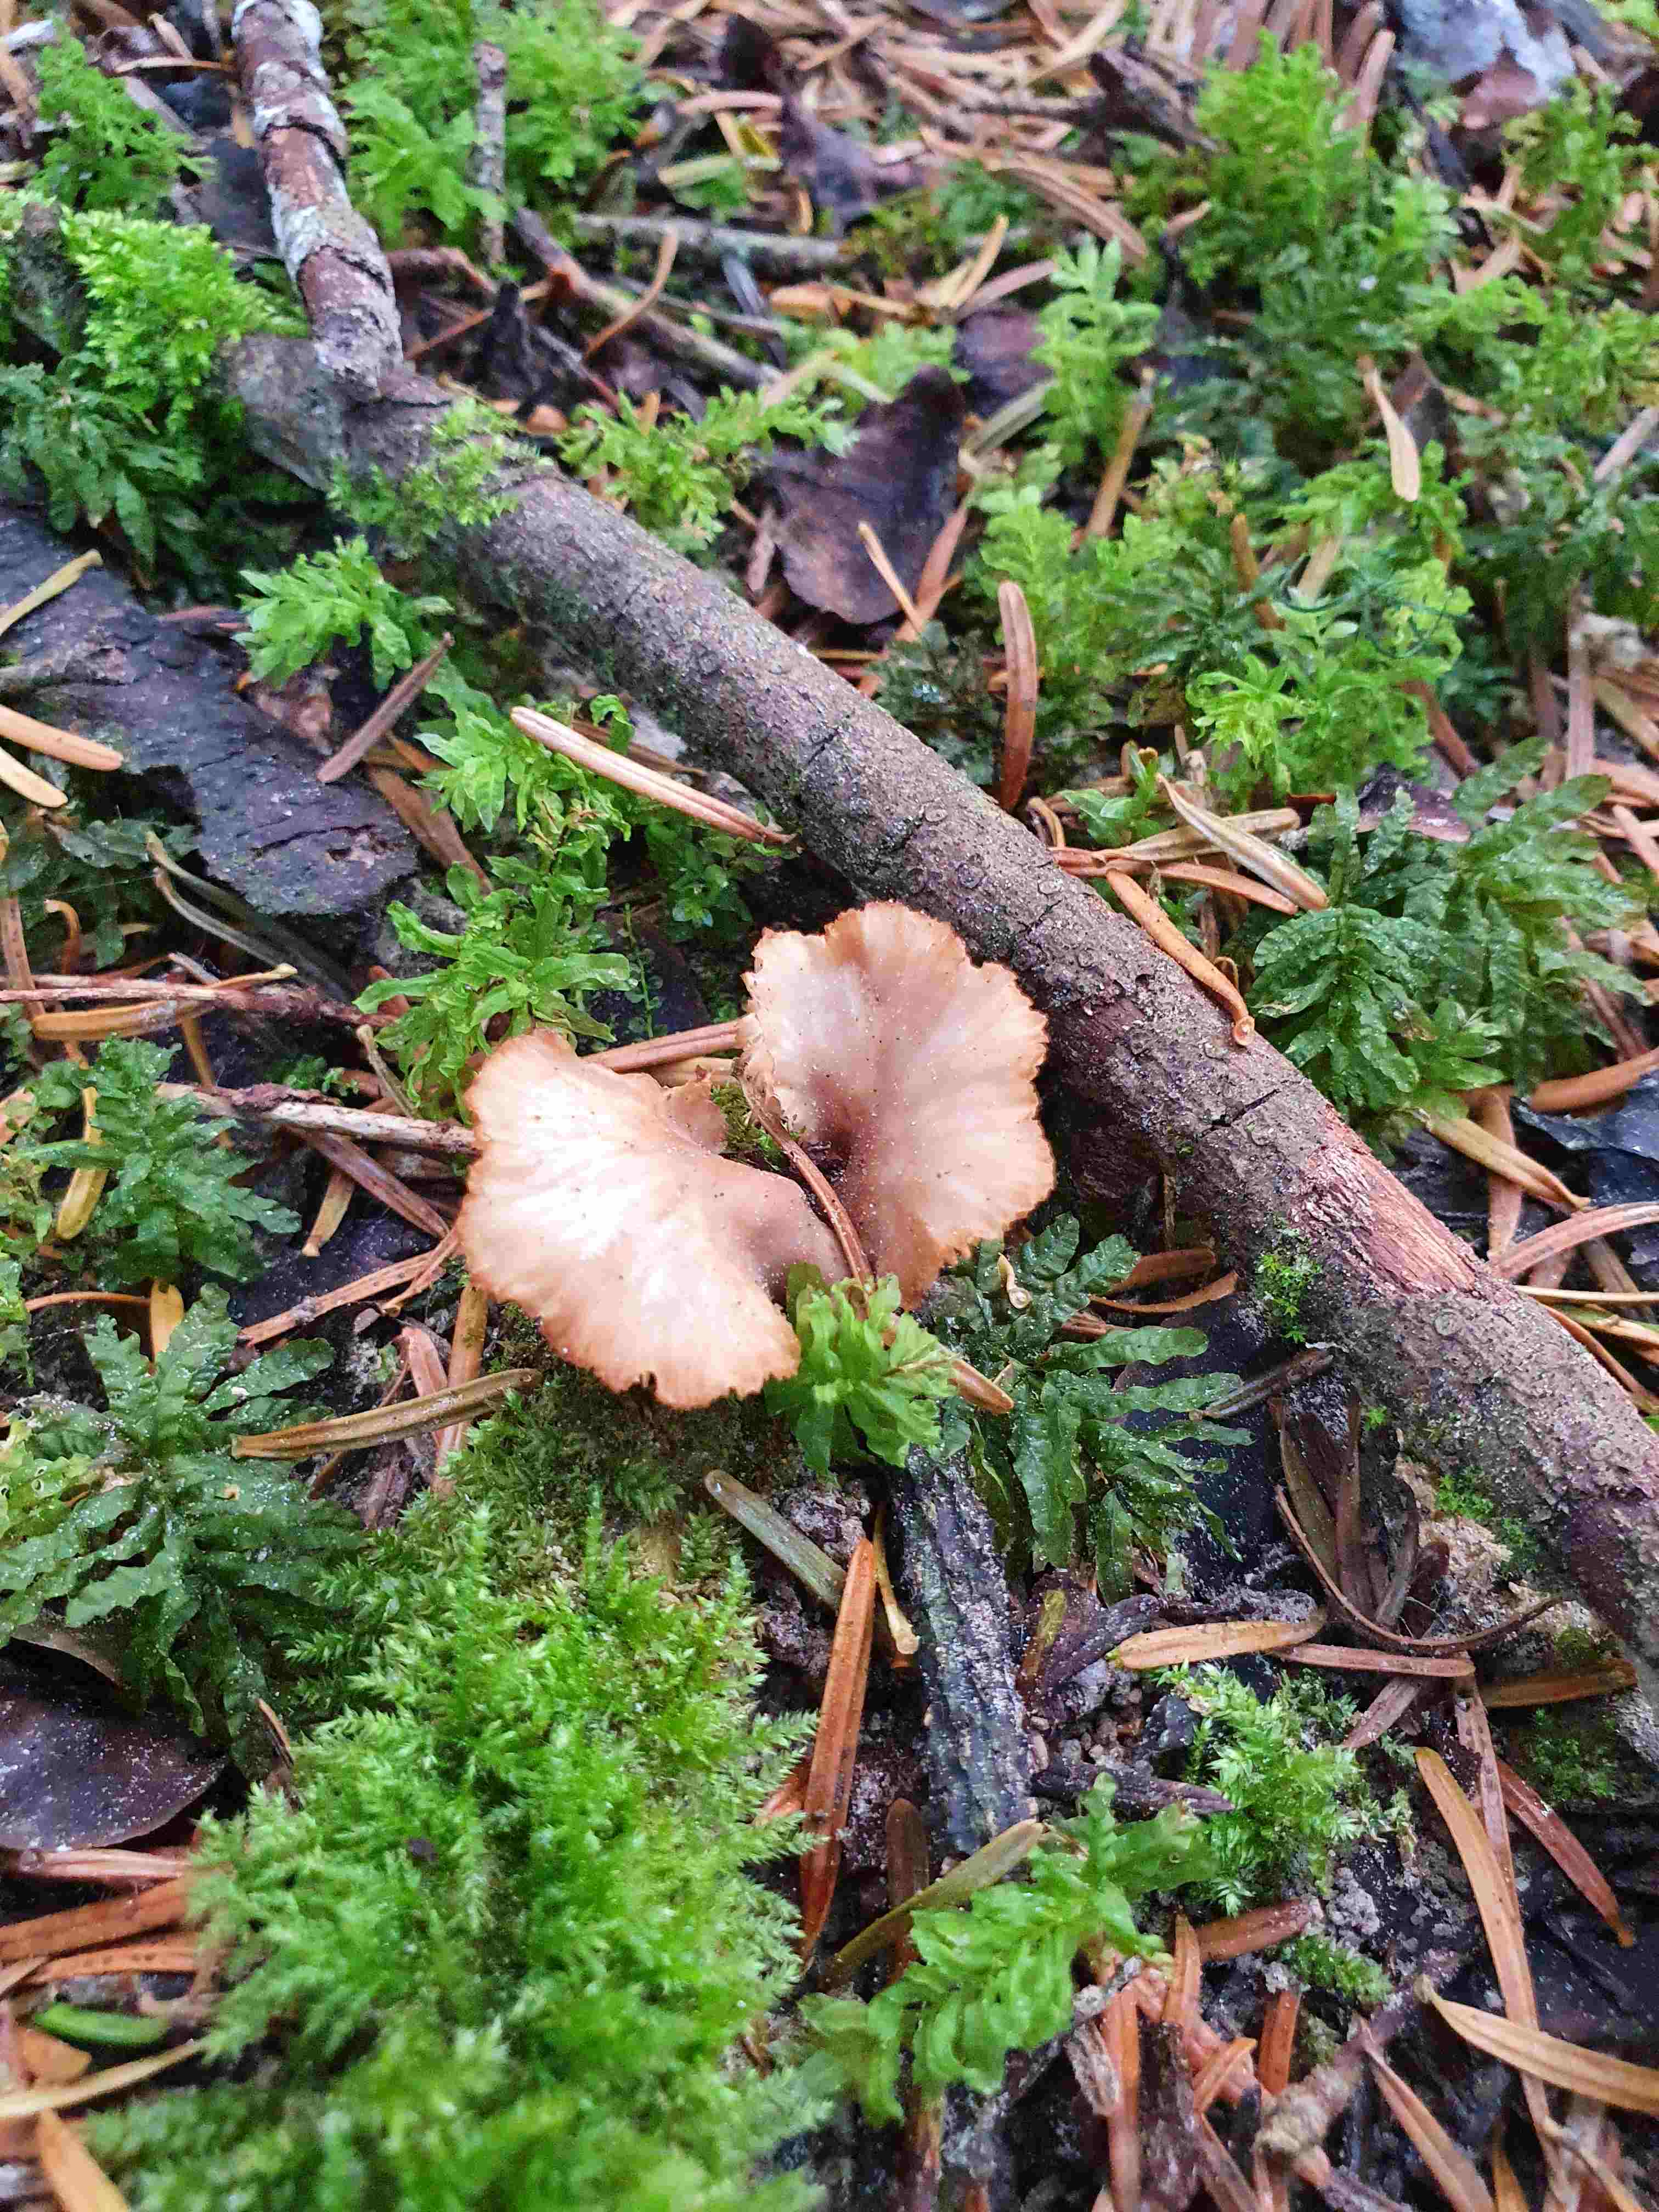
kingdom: Fungi
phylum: Basidiomycota
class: Agaricomycetes
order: Russulales
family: Auriscalpiaceae
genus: Lentinellus
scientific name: Lentinellus flabelliformis
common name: navle-savbladhat
